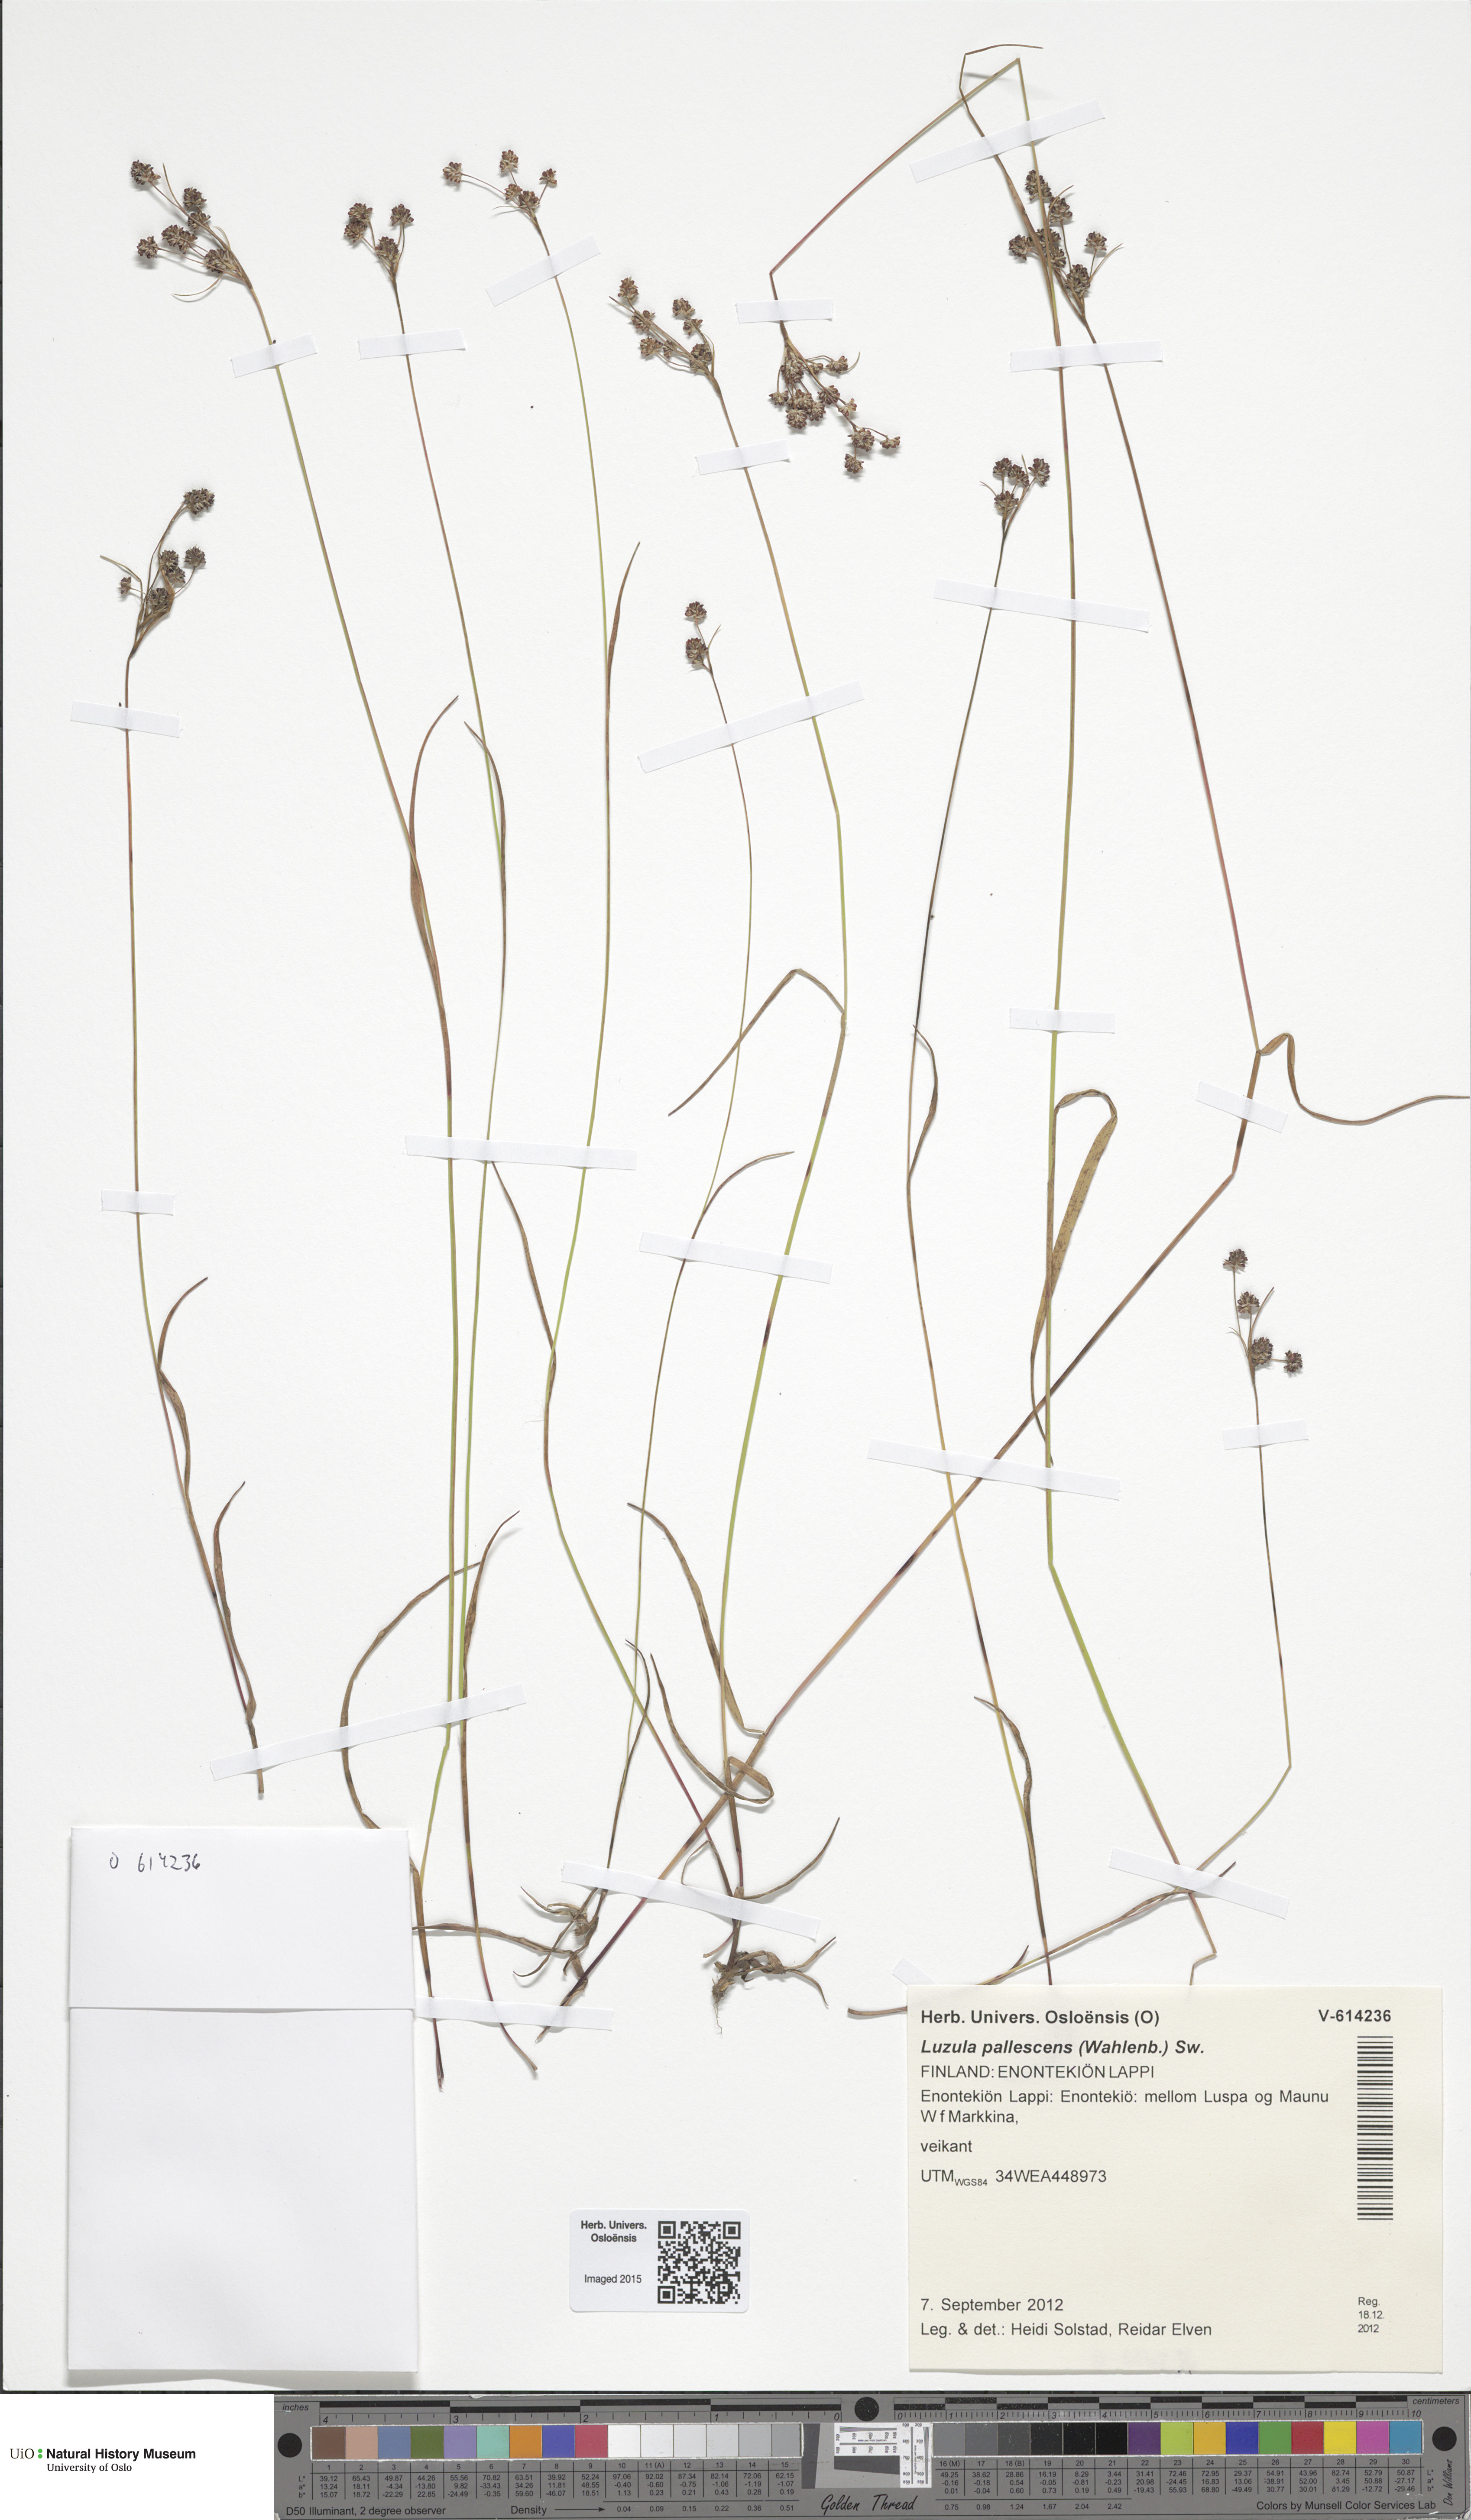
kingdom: Plantae
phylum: Tracheophyta
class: Liliopsida
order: Poales
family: Juncaceae
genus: Luzula
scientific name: Luzula pallescens
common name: Fen wood-rush
